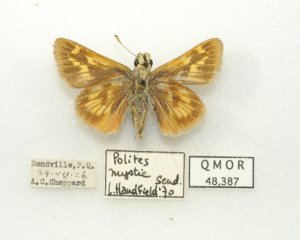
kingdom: Animalia
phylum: Arthropoda
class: Insecta
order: Lepidoptera
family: Hesperiidae
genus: Polites
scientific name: Polites
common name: Long Dash Skipper
